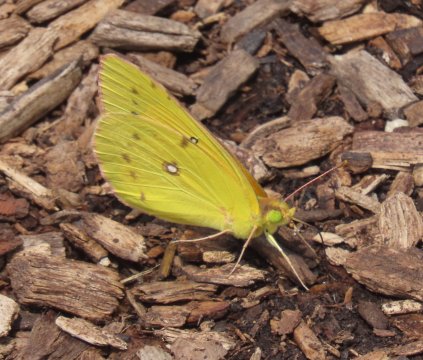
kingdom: Animalia
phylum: Arthropoda
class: Insecta
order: Lepidoptera
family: Pieridae
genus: Colias
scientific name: Colias eurytheme
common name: Orange Sulphur
